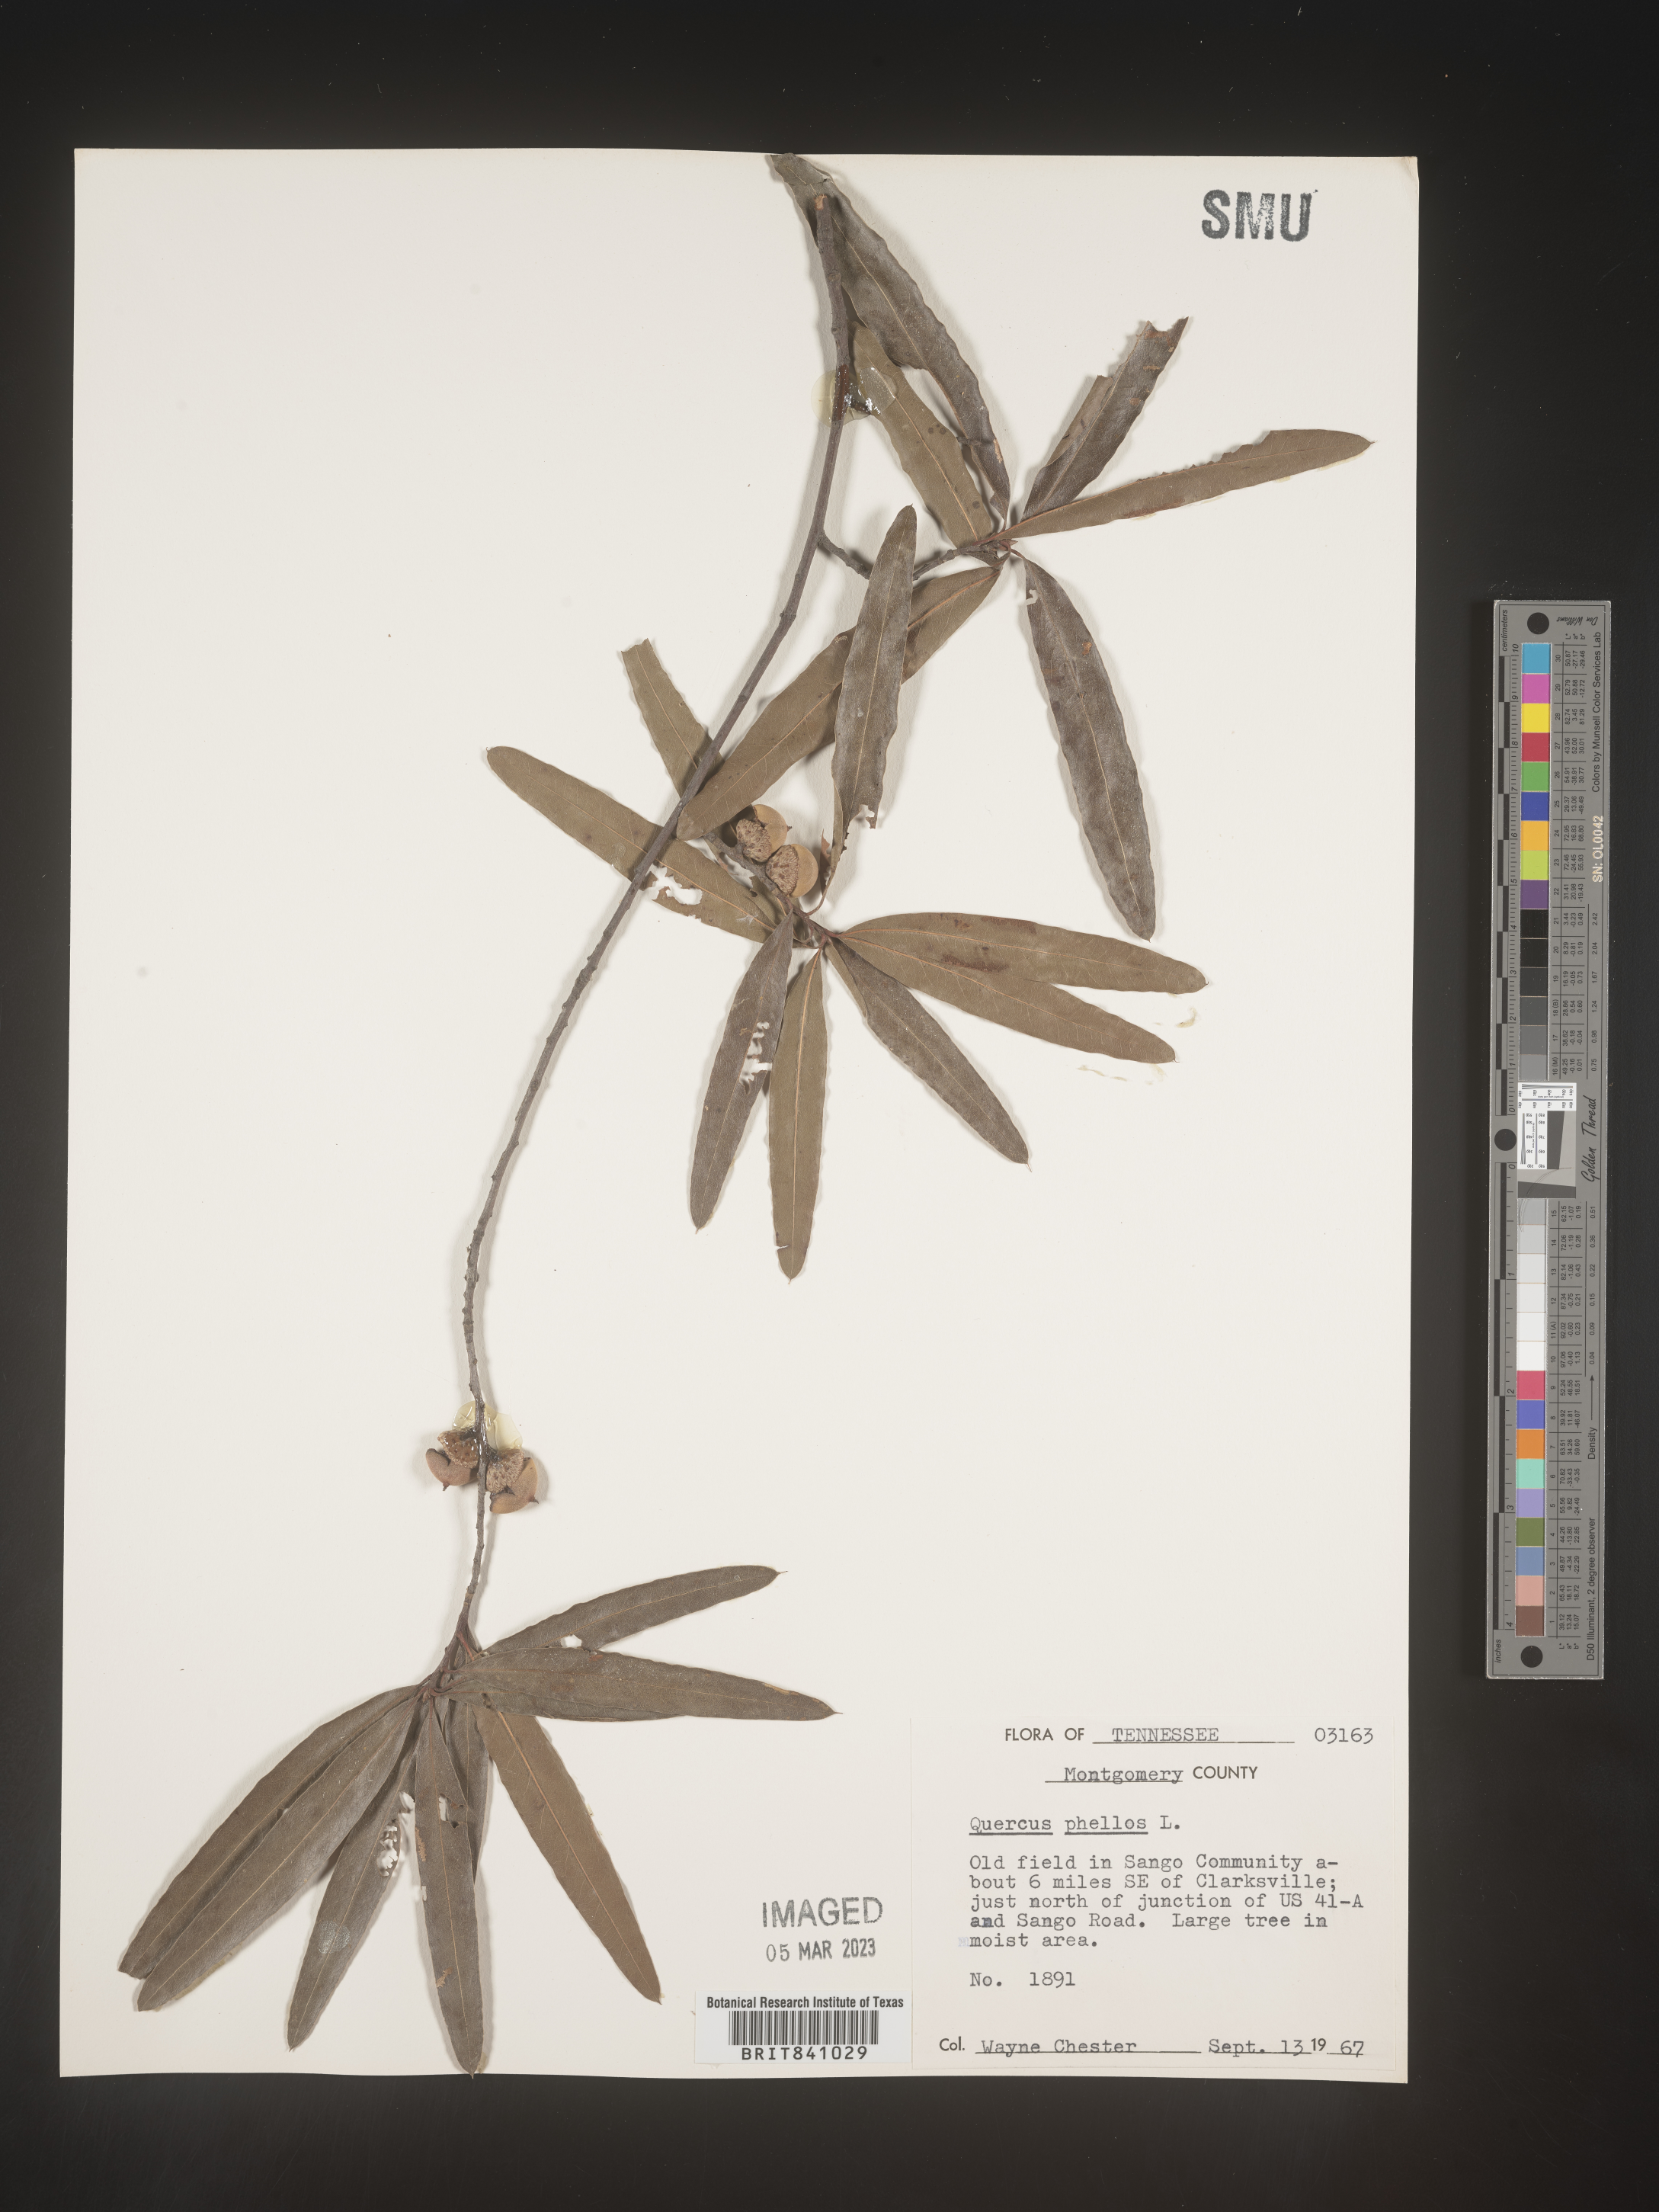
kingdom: Plantae
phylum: Tracheophyta
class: Magnoliopsida
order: Fagales
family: Fagaceae
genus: Quercus
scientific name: Quercus phellos
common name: Willow oak
